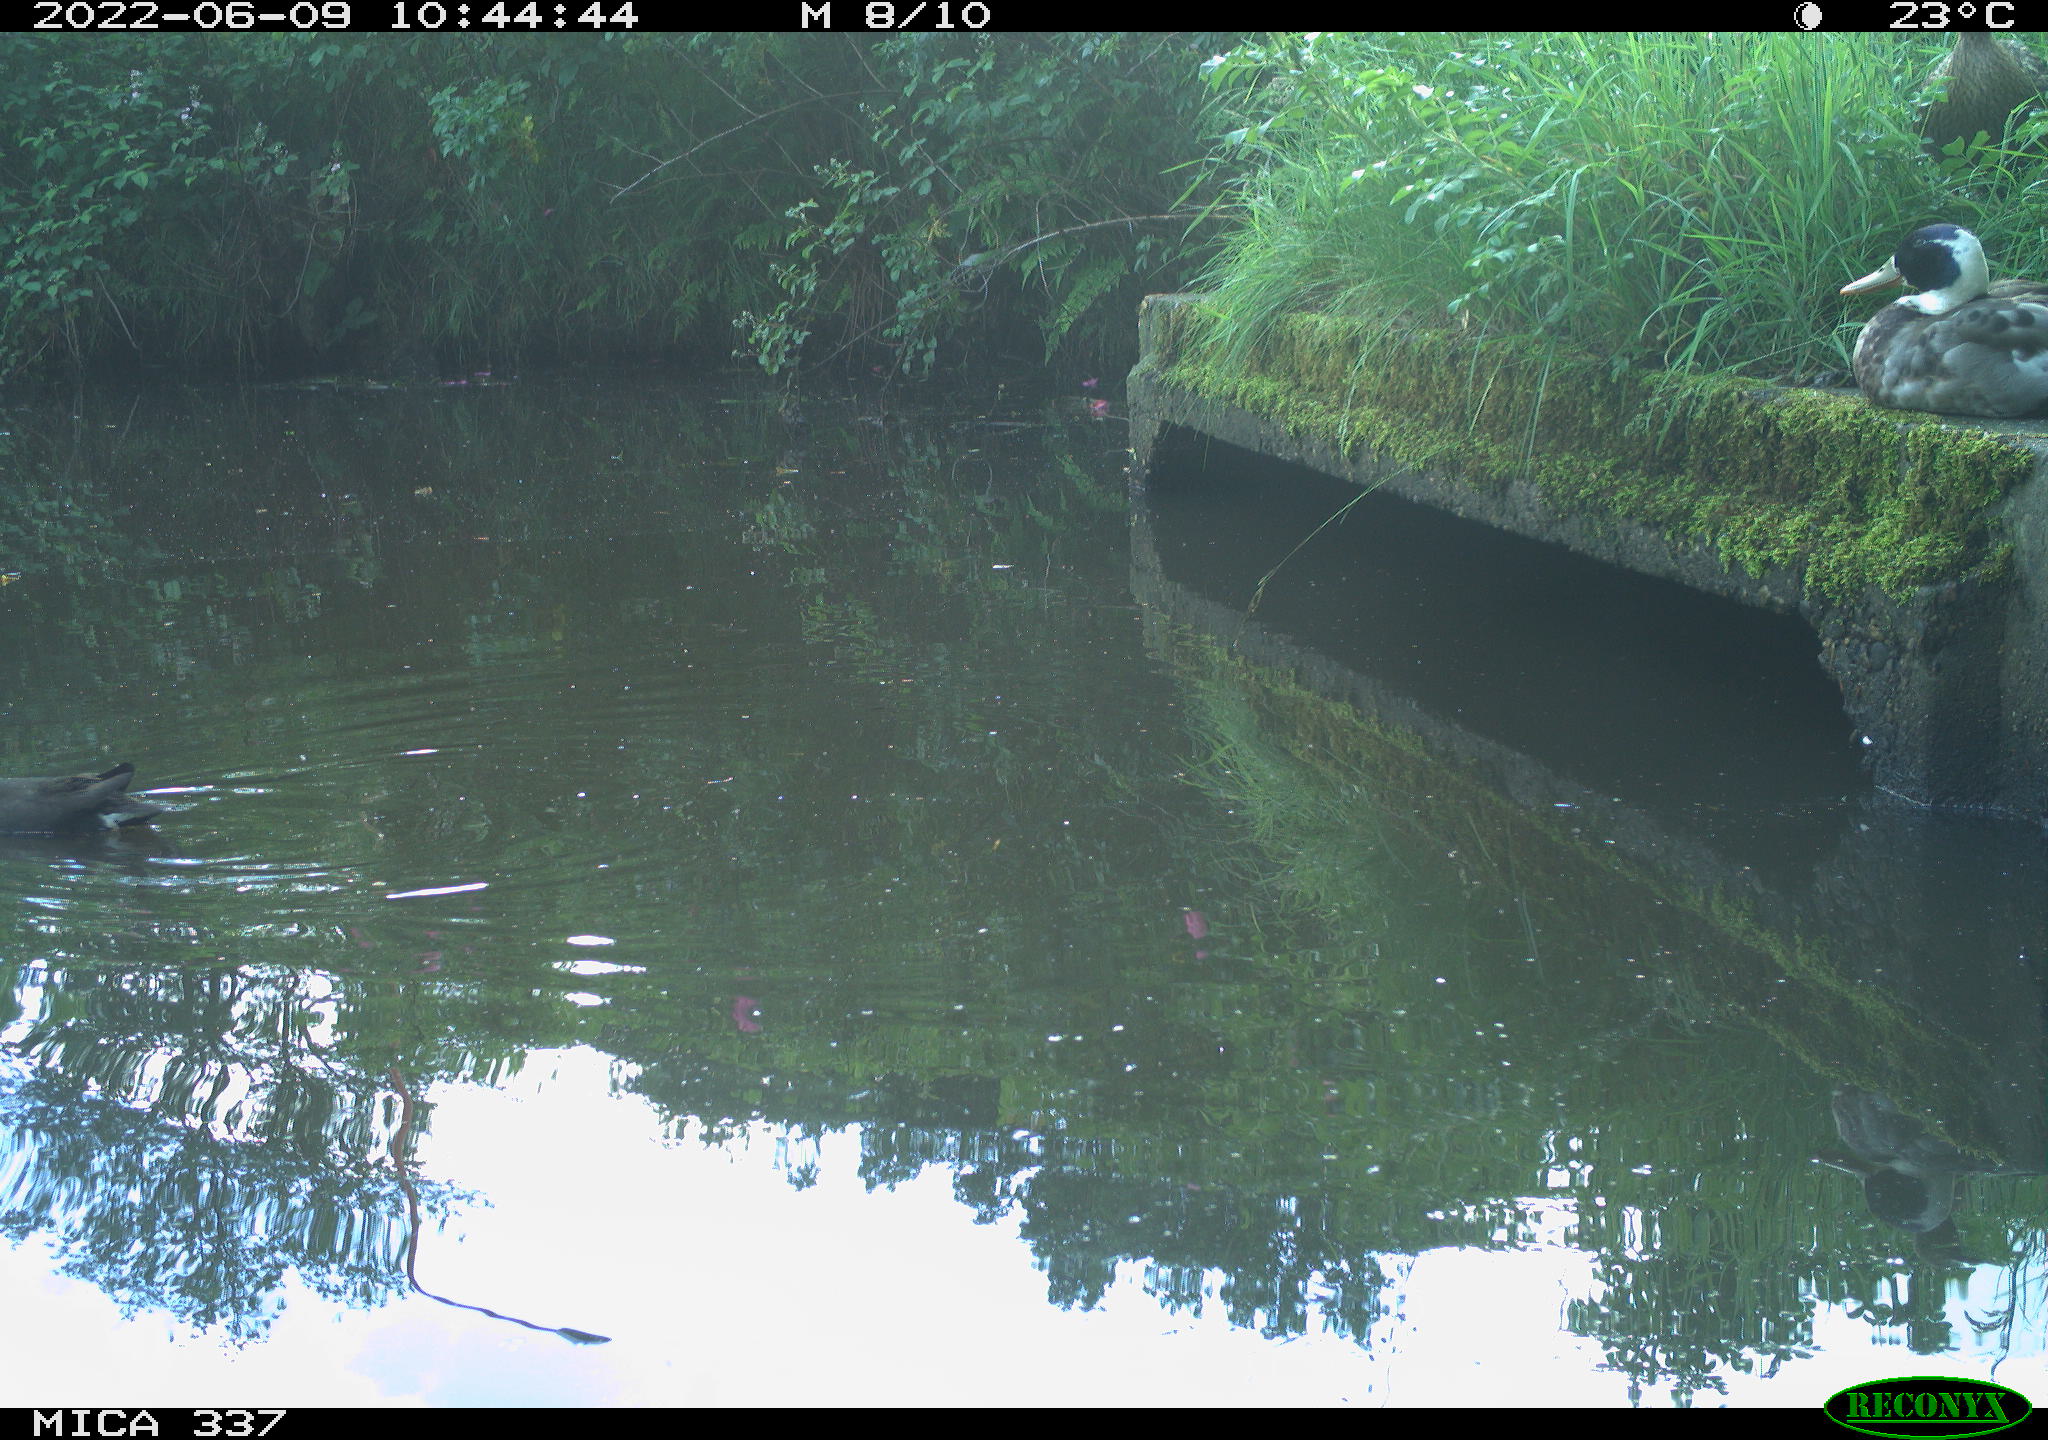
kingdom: Animalia
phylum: Chordata
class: Aves
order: Gruiformes
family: Rallidae
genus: Gallinula
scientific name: Gallinula chloropus
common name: Common moorhen
